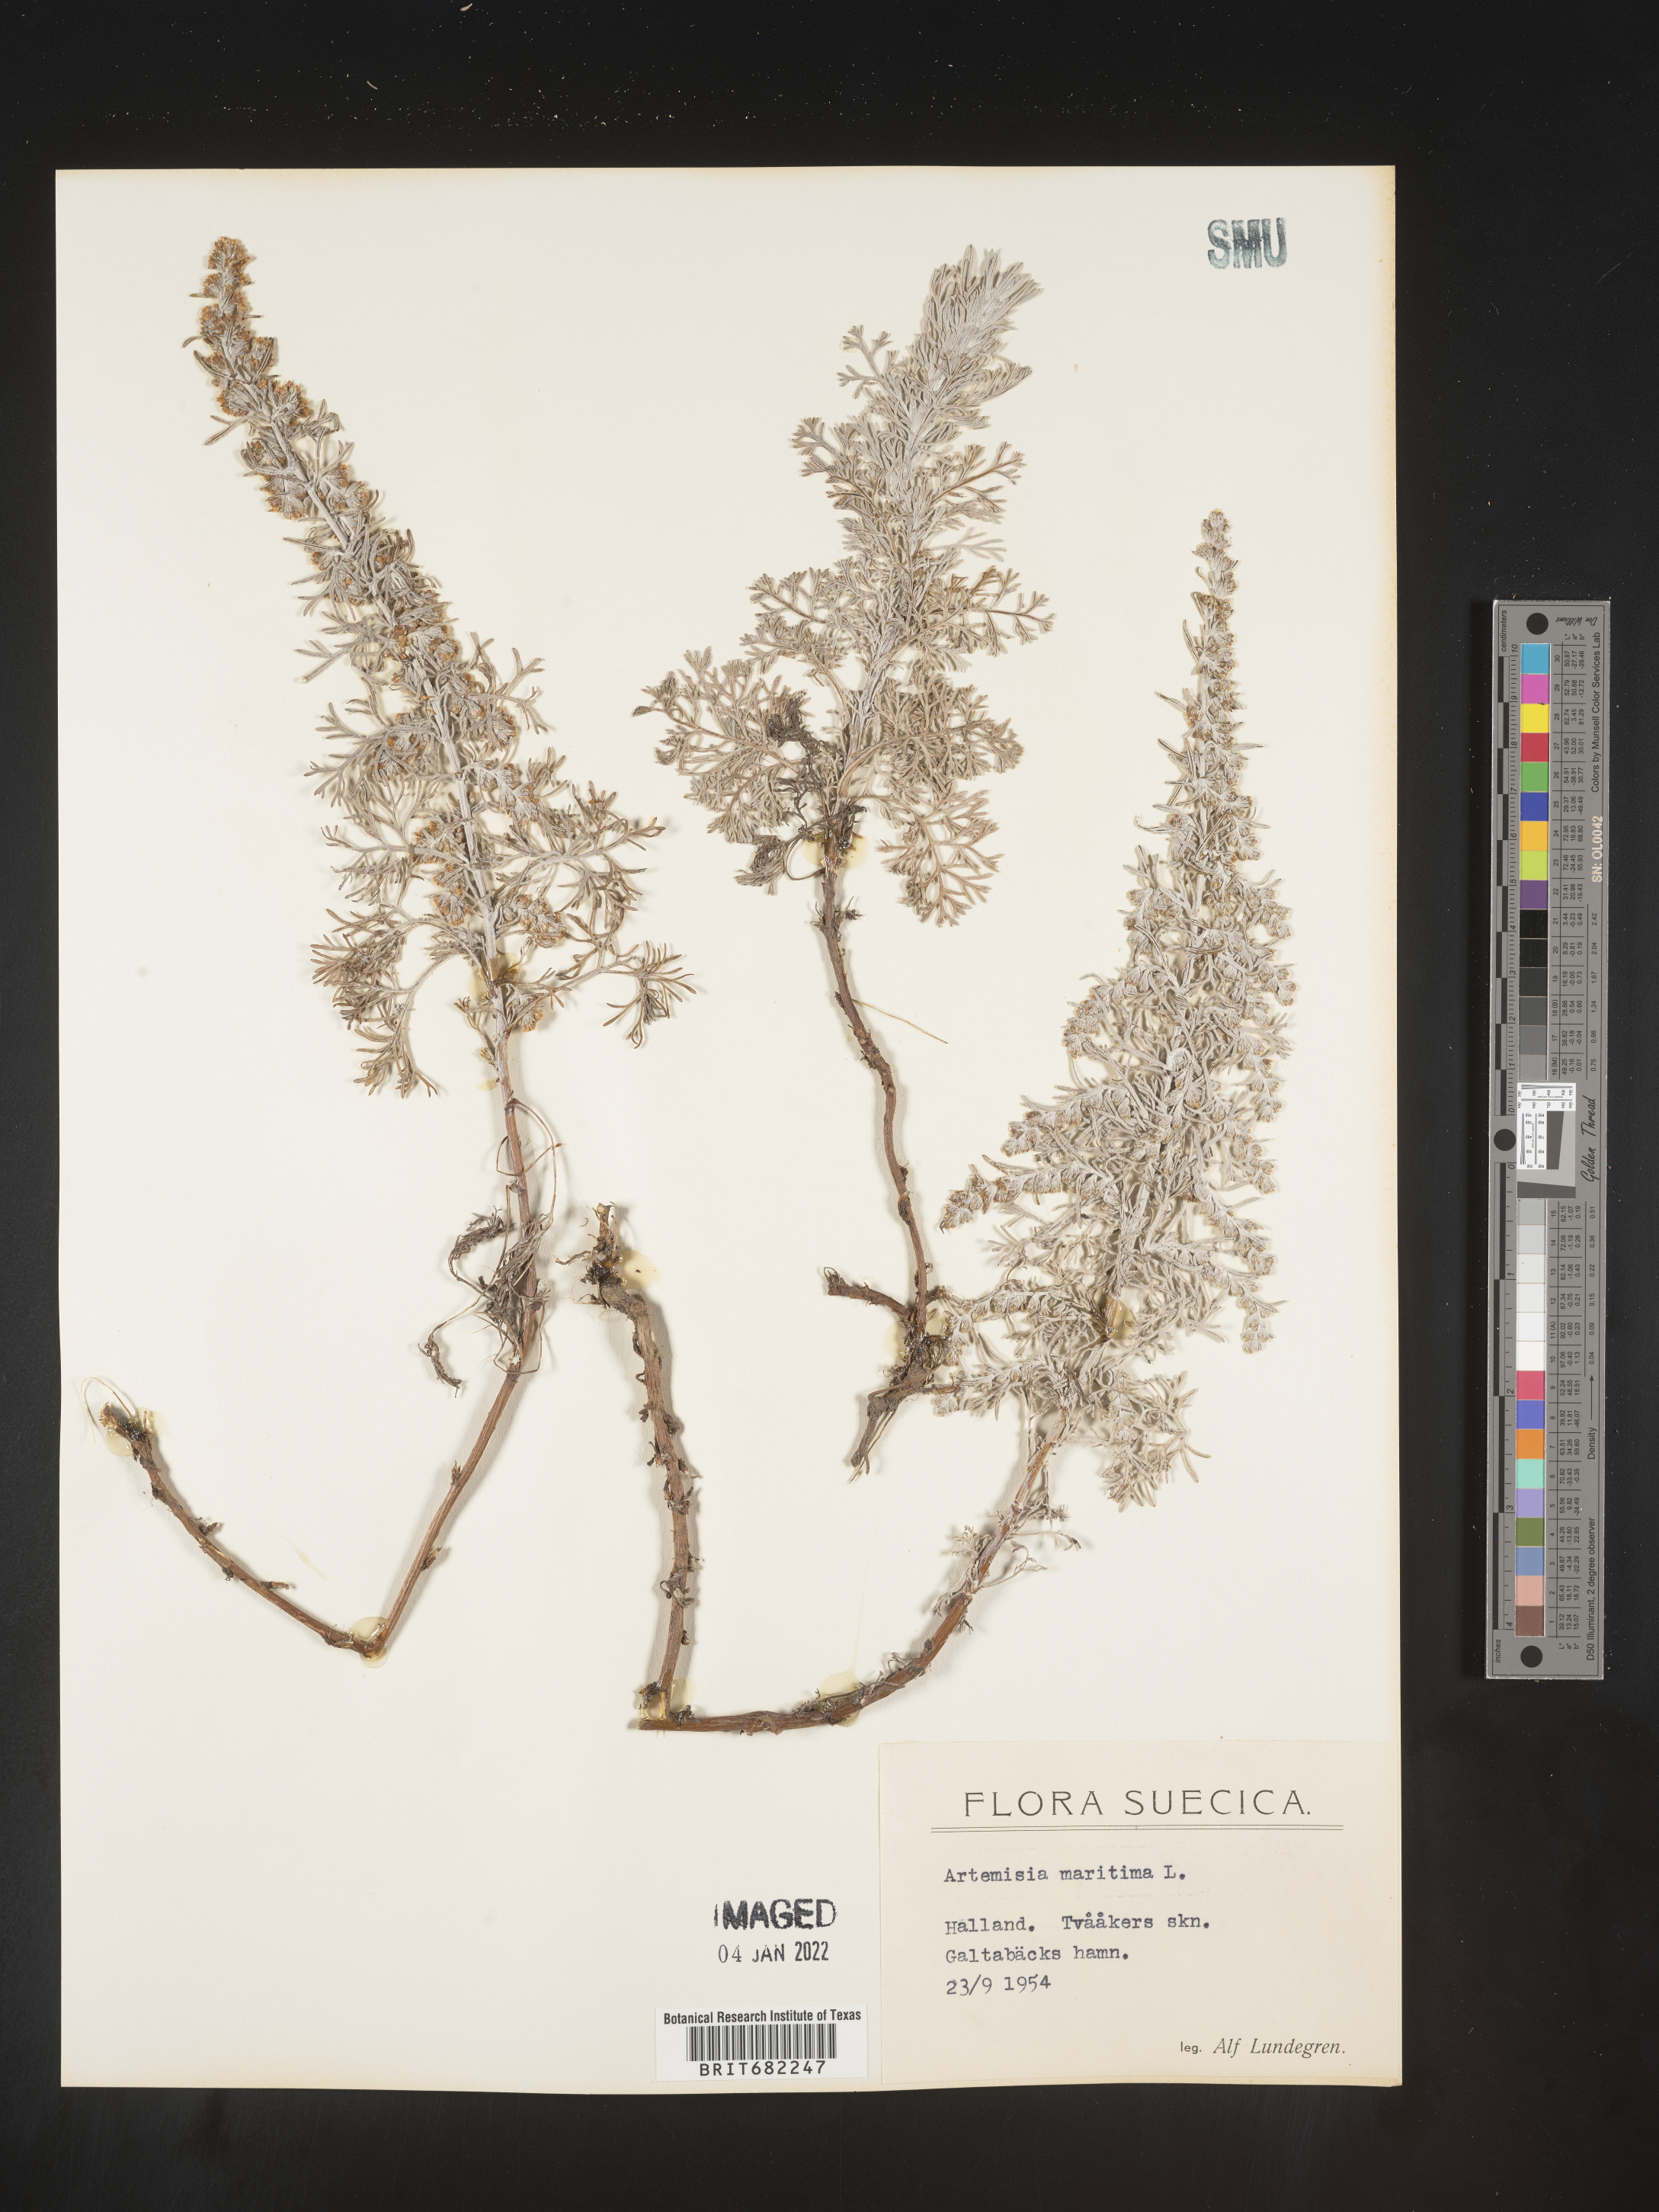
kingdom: Plantae
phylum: Tracheophyta
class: Magnoliopsida
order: Asterales
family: Asteraceae
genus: Artemisia
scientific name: Artemisia
